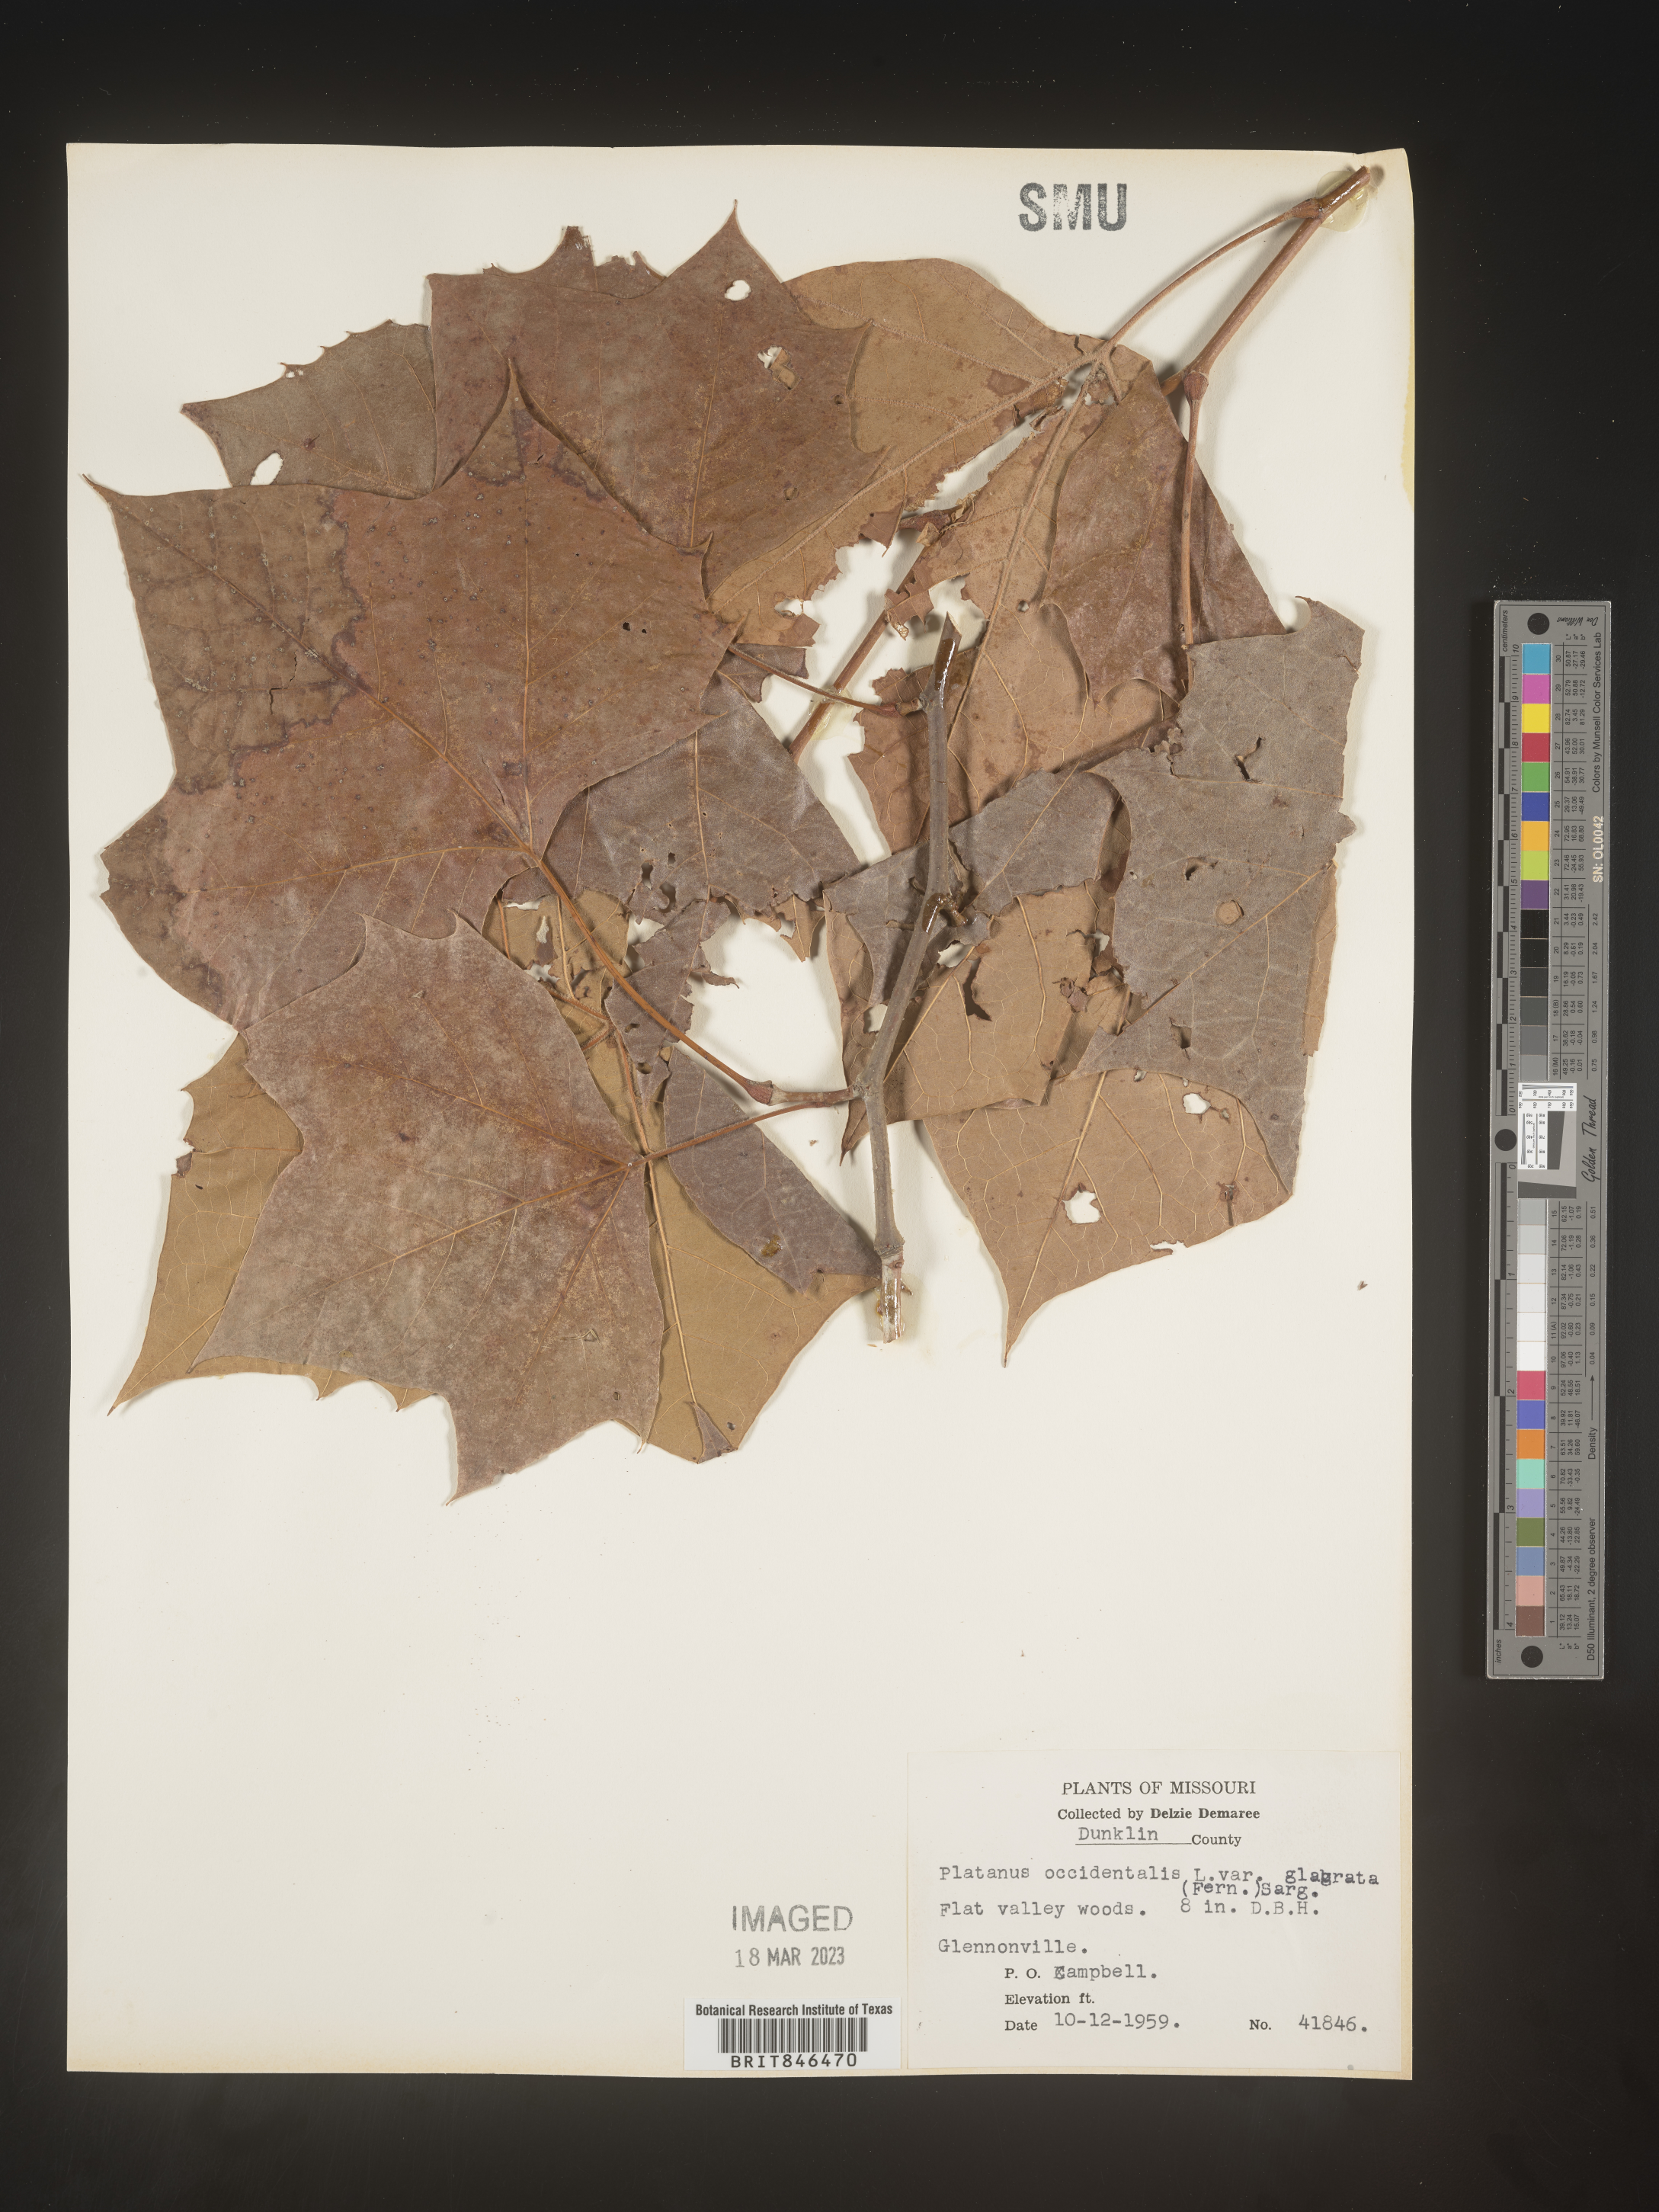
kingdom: Plantae
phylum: Tracheophyta
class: Magnoliopsida
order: Proteales
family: Platanaceae
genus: Platanus
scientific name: Platanus occidentalis
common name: American sycamore
